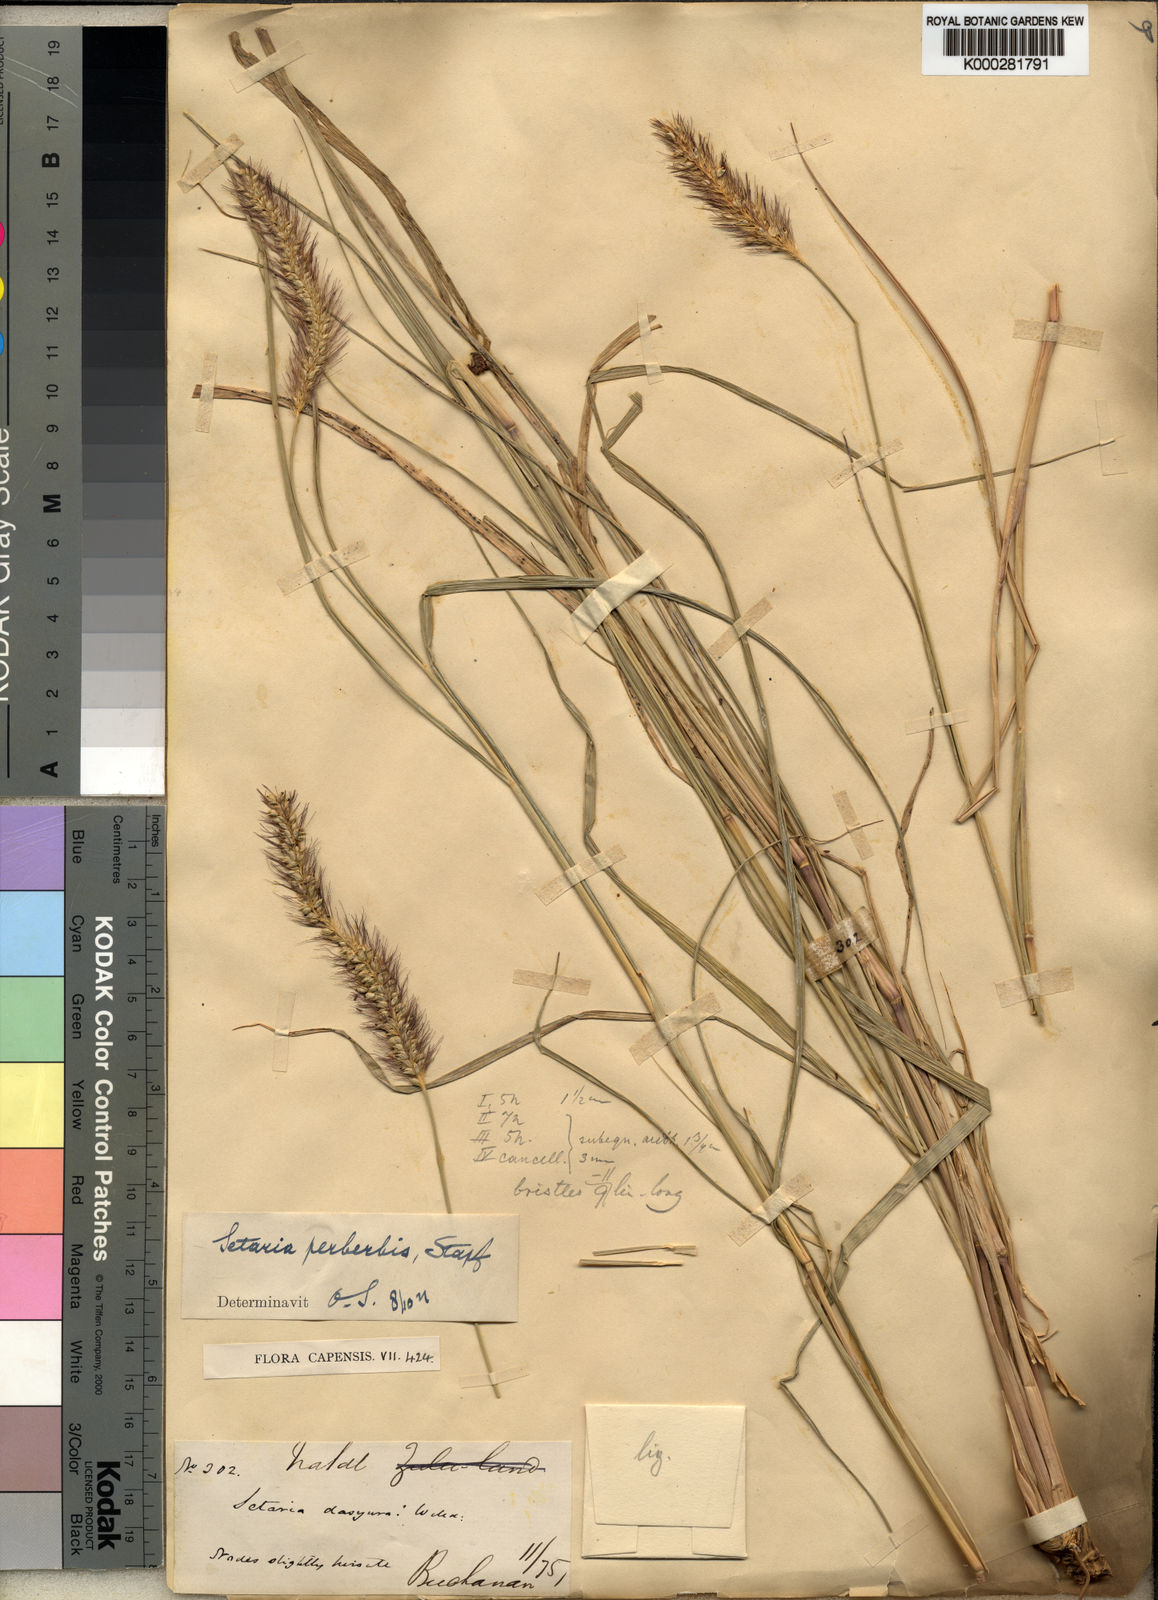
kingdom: Plantae
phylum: Tracheophyta
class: Liliopsida
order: Poales
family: Poaceae
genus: Setaria
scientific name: Setaria incrassata
